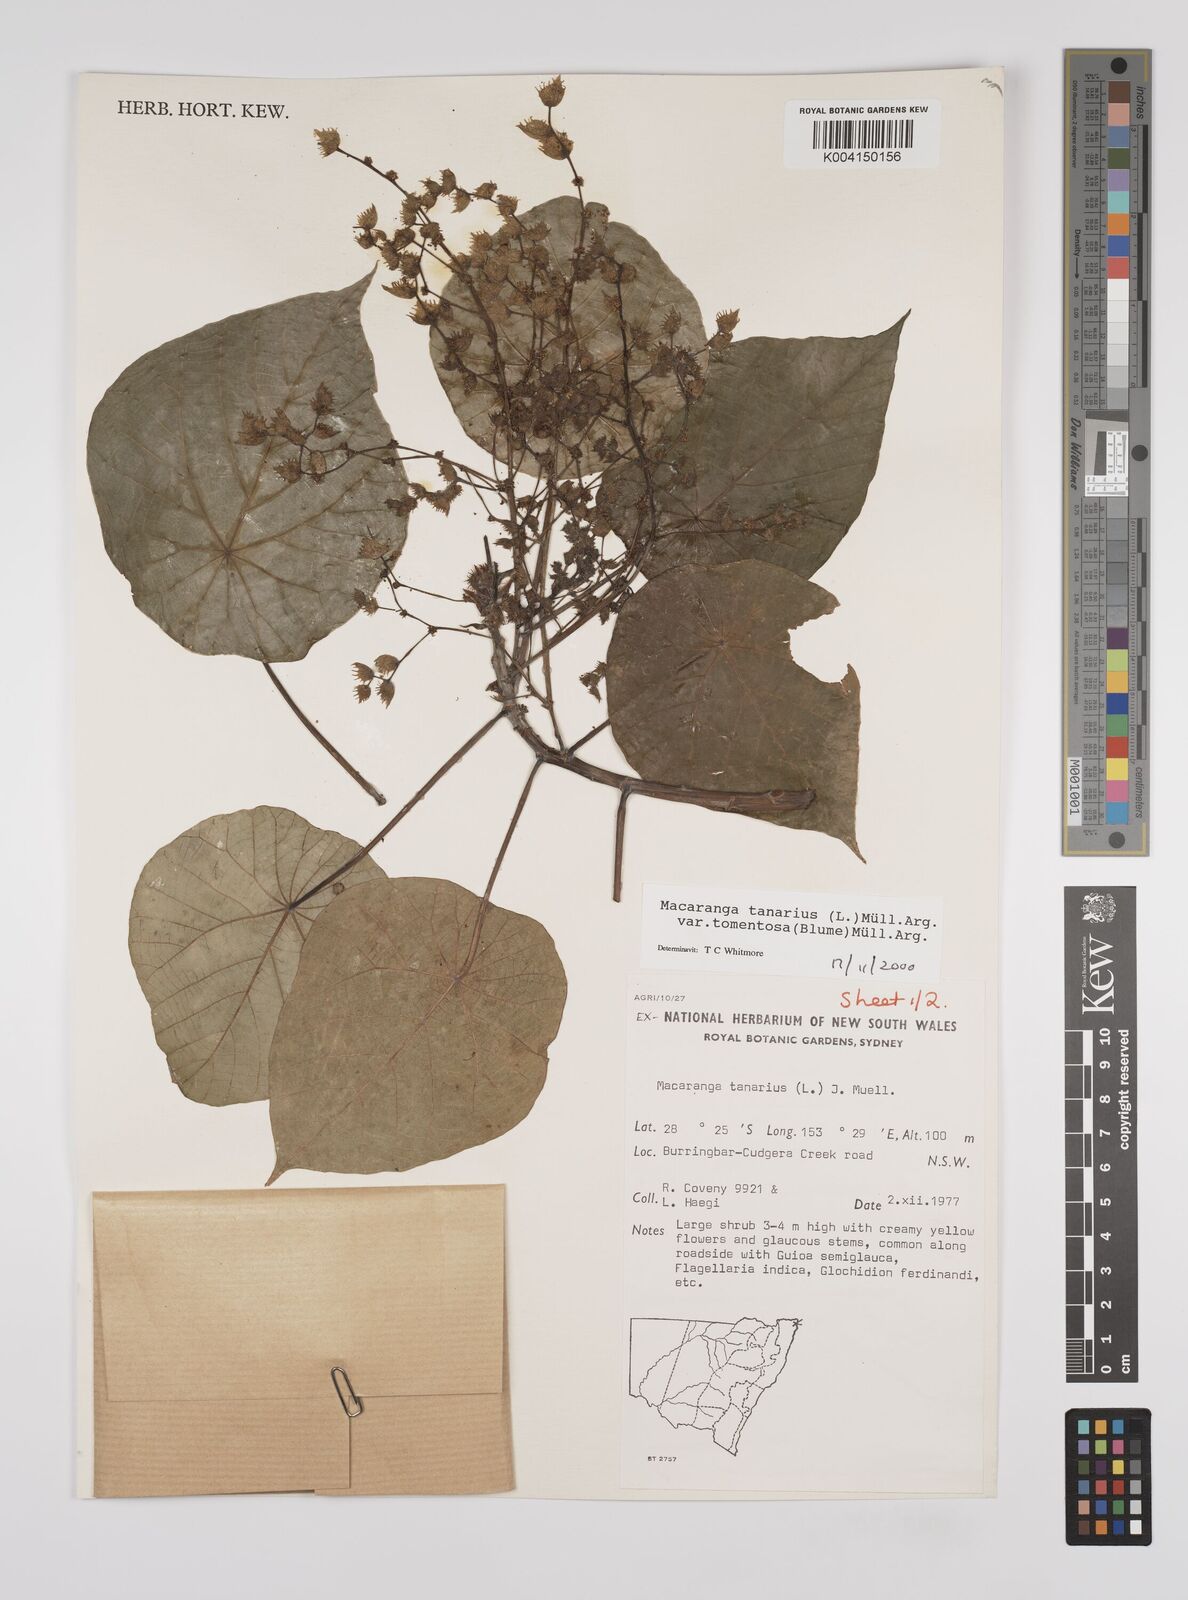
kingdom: Plantae
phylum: Tracheophyta
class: Magnoliopsida
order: Malpighiales
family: Euphorbiaceae
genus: Macaranga
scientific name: Macaranga tanarius
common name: Parasol leaf tree
